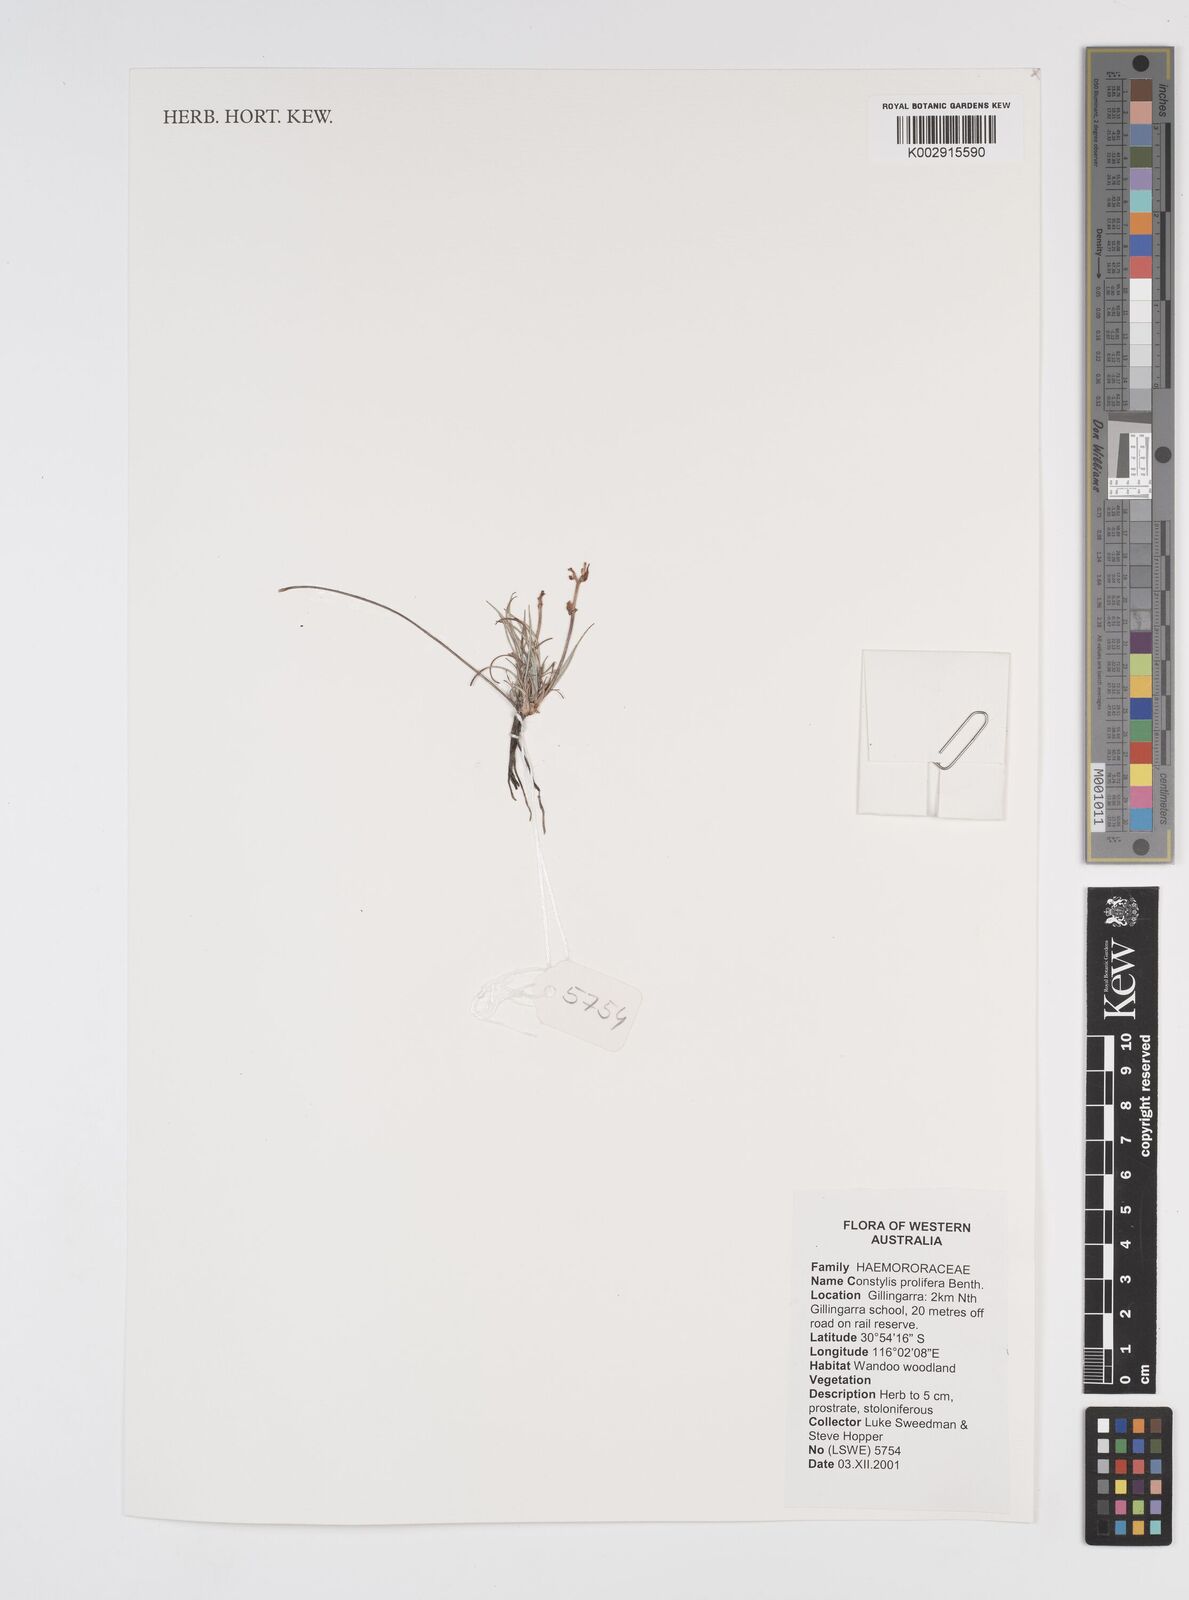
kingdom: Plantae
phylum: Tracheophyta
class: Liliopsida
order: Commelinales
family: Haemodoraceae
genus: Conostylis
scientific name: Conostylis candicans
